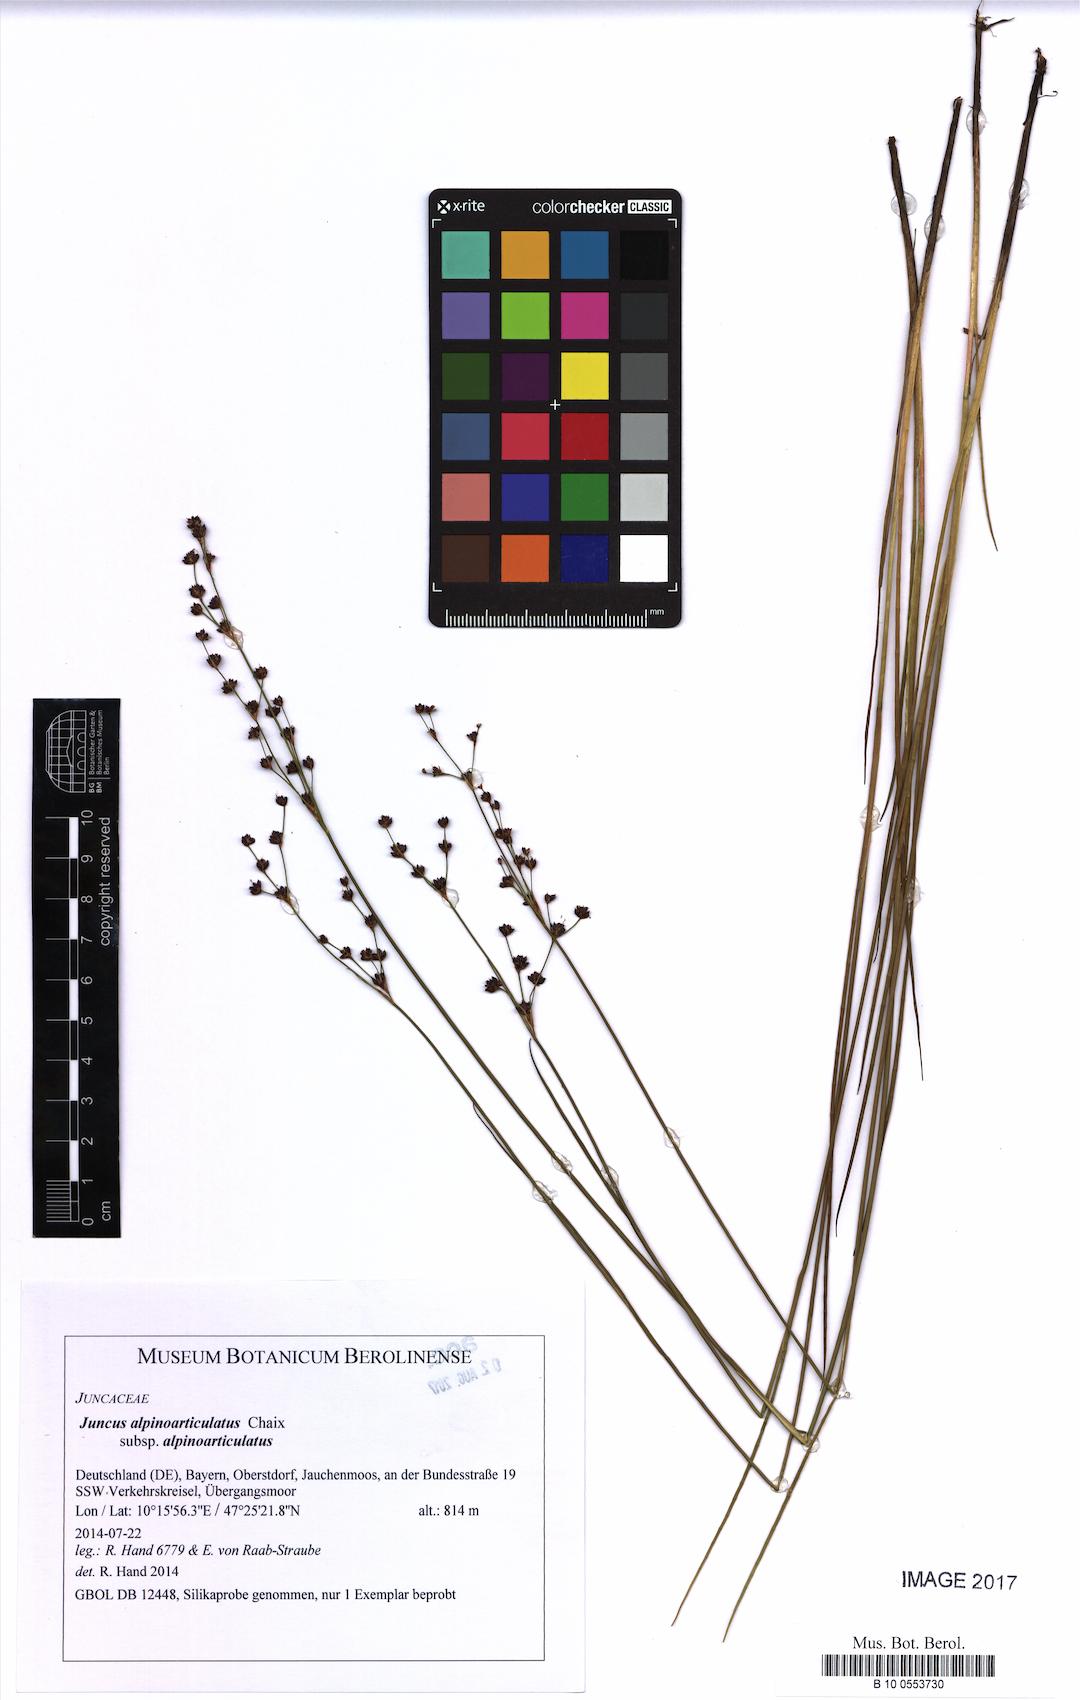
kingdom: Plantae
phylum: Tracheophyta
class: Liliopsida
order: Poales
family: Juncaceae
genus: Juncus
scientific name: Juncus alpinoarticulatus
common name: Alpine rush
